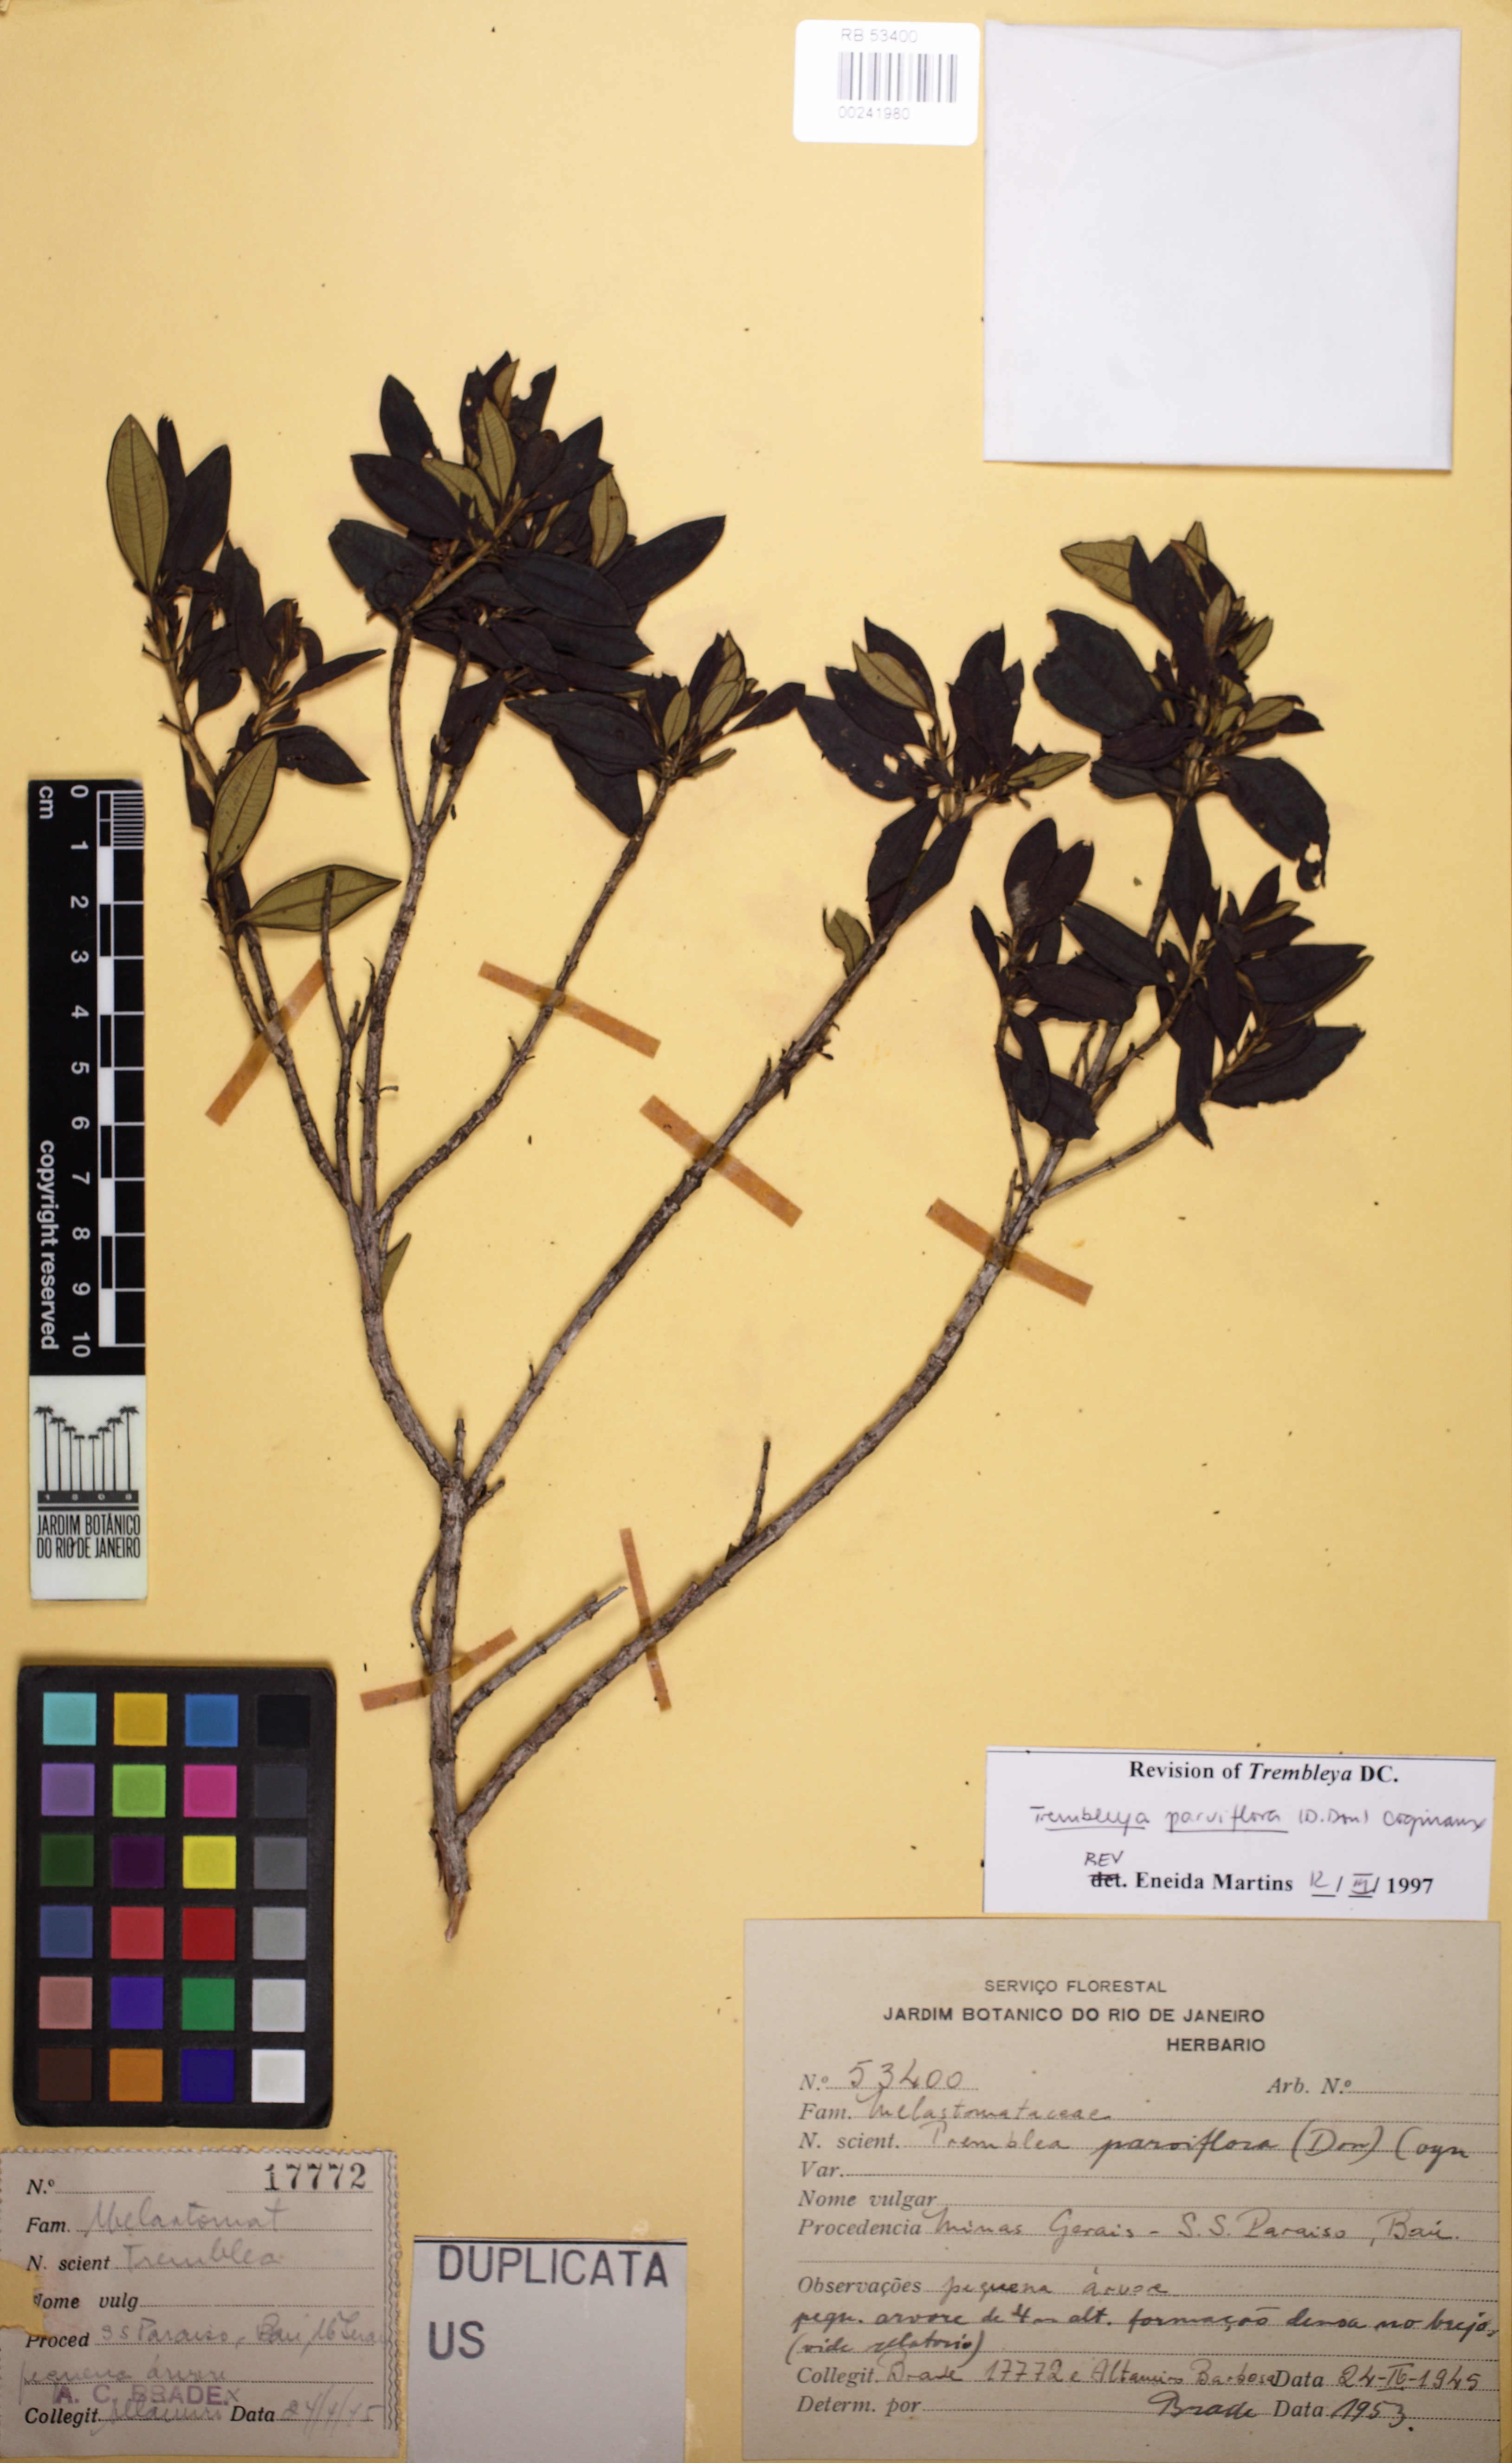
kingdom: Plantae
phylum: Tracheophyta
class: Magnoliopsida
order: Myrtales
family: Melastomataceae
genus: Microlicia
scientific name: Microlicia parviflora
